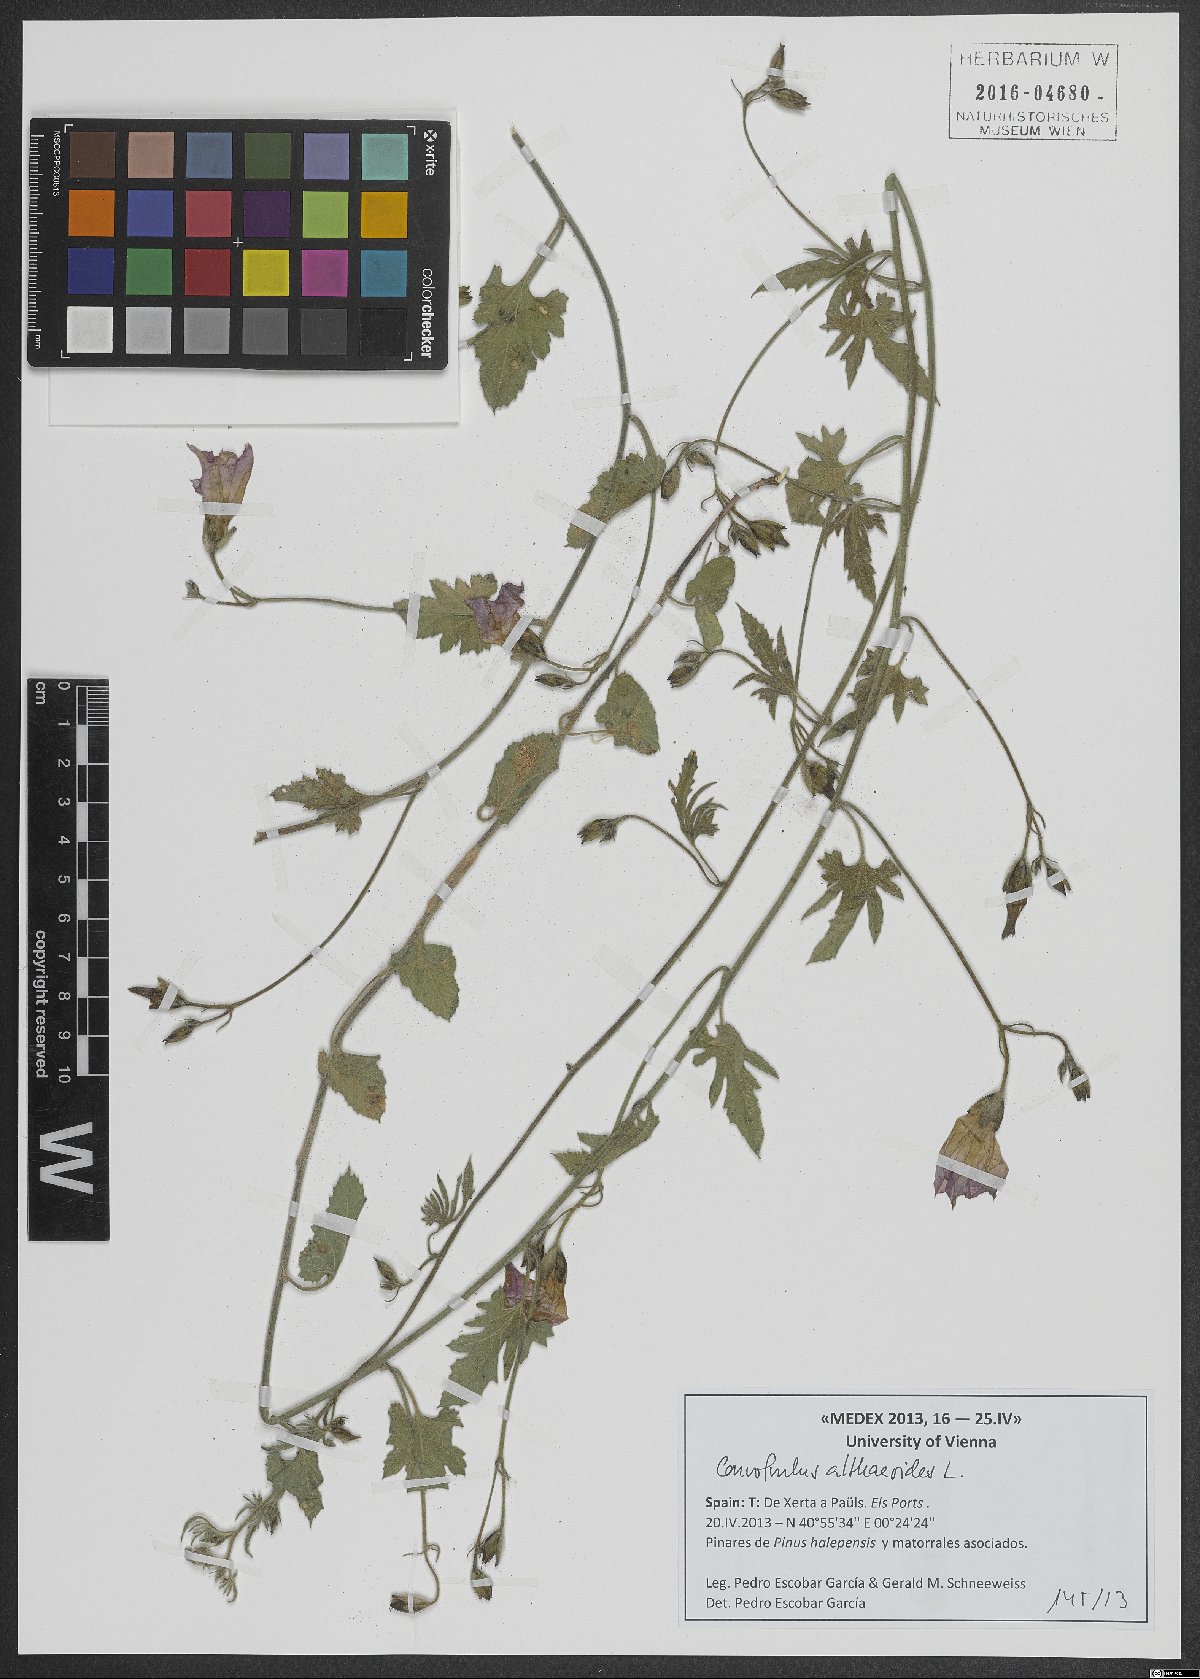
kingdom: Plantae
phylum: Tracheophyta
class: Magnoliopsida
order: Solanales
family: Convolvulaceae
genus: Convolvulus
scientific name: Convolvulus althaeoides
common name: Mallow bindweed
